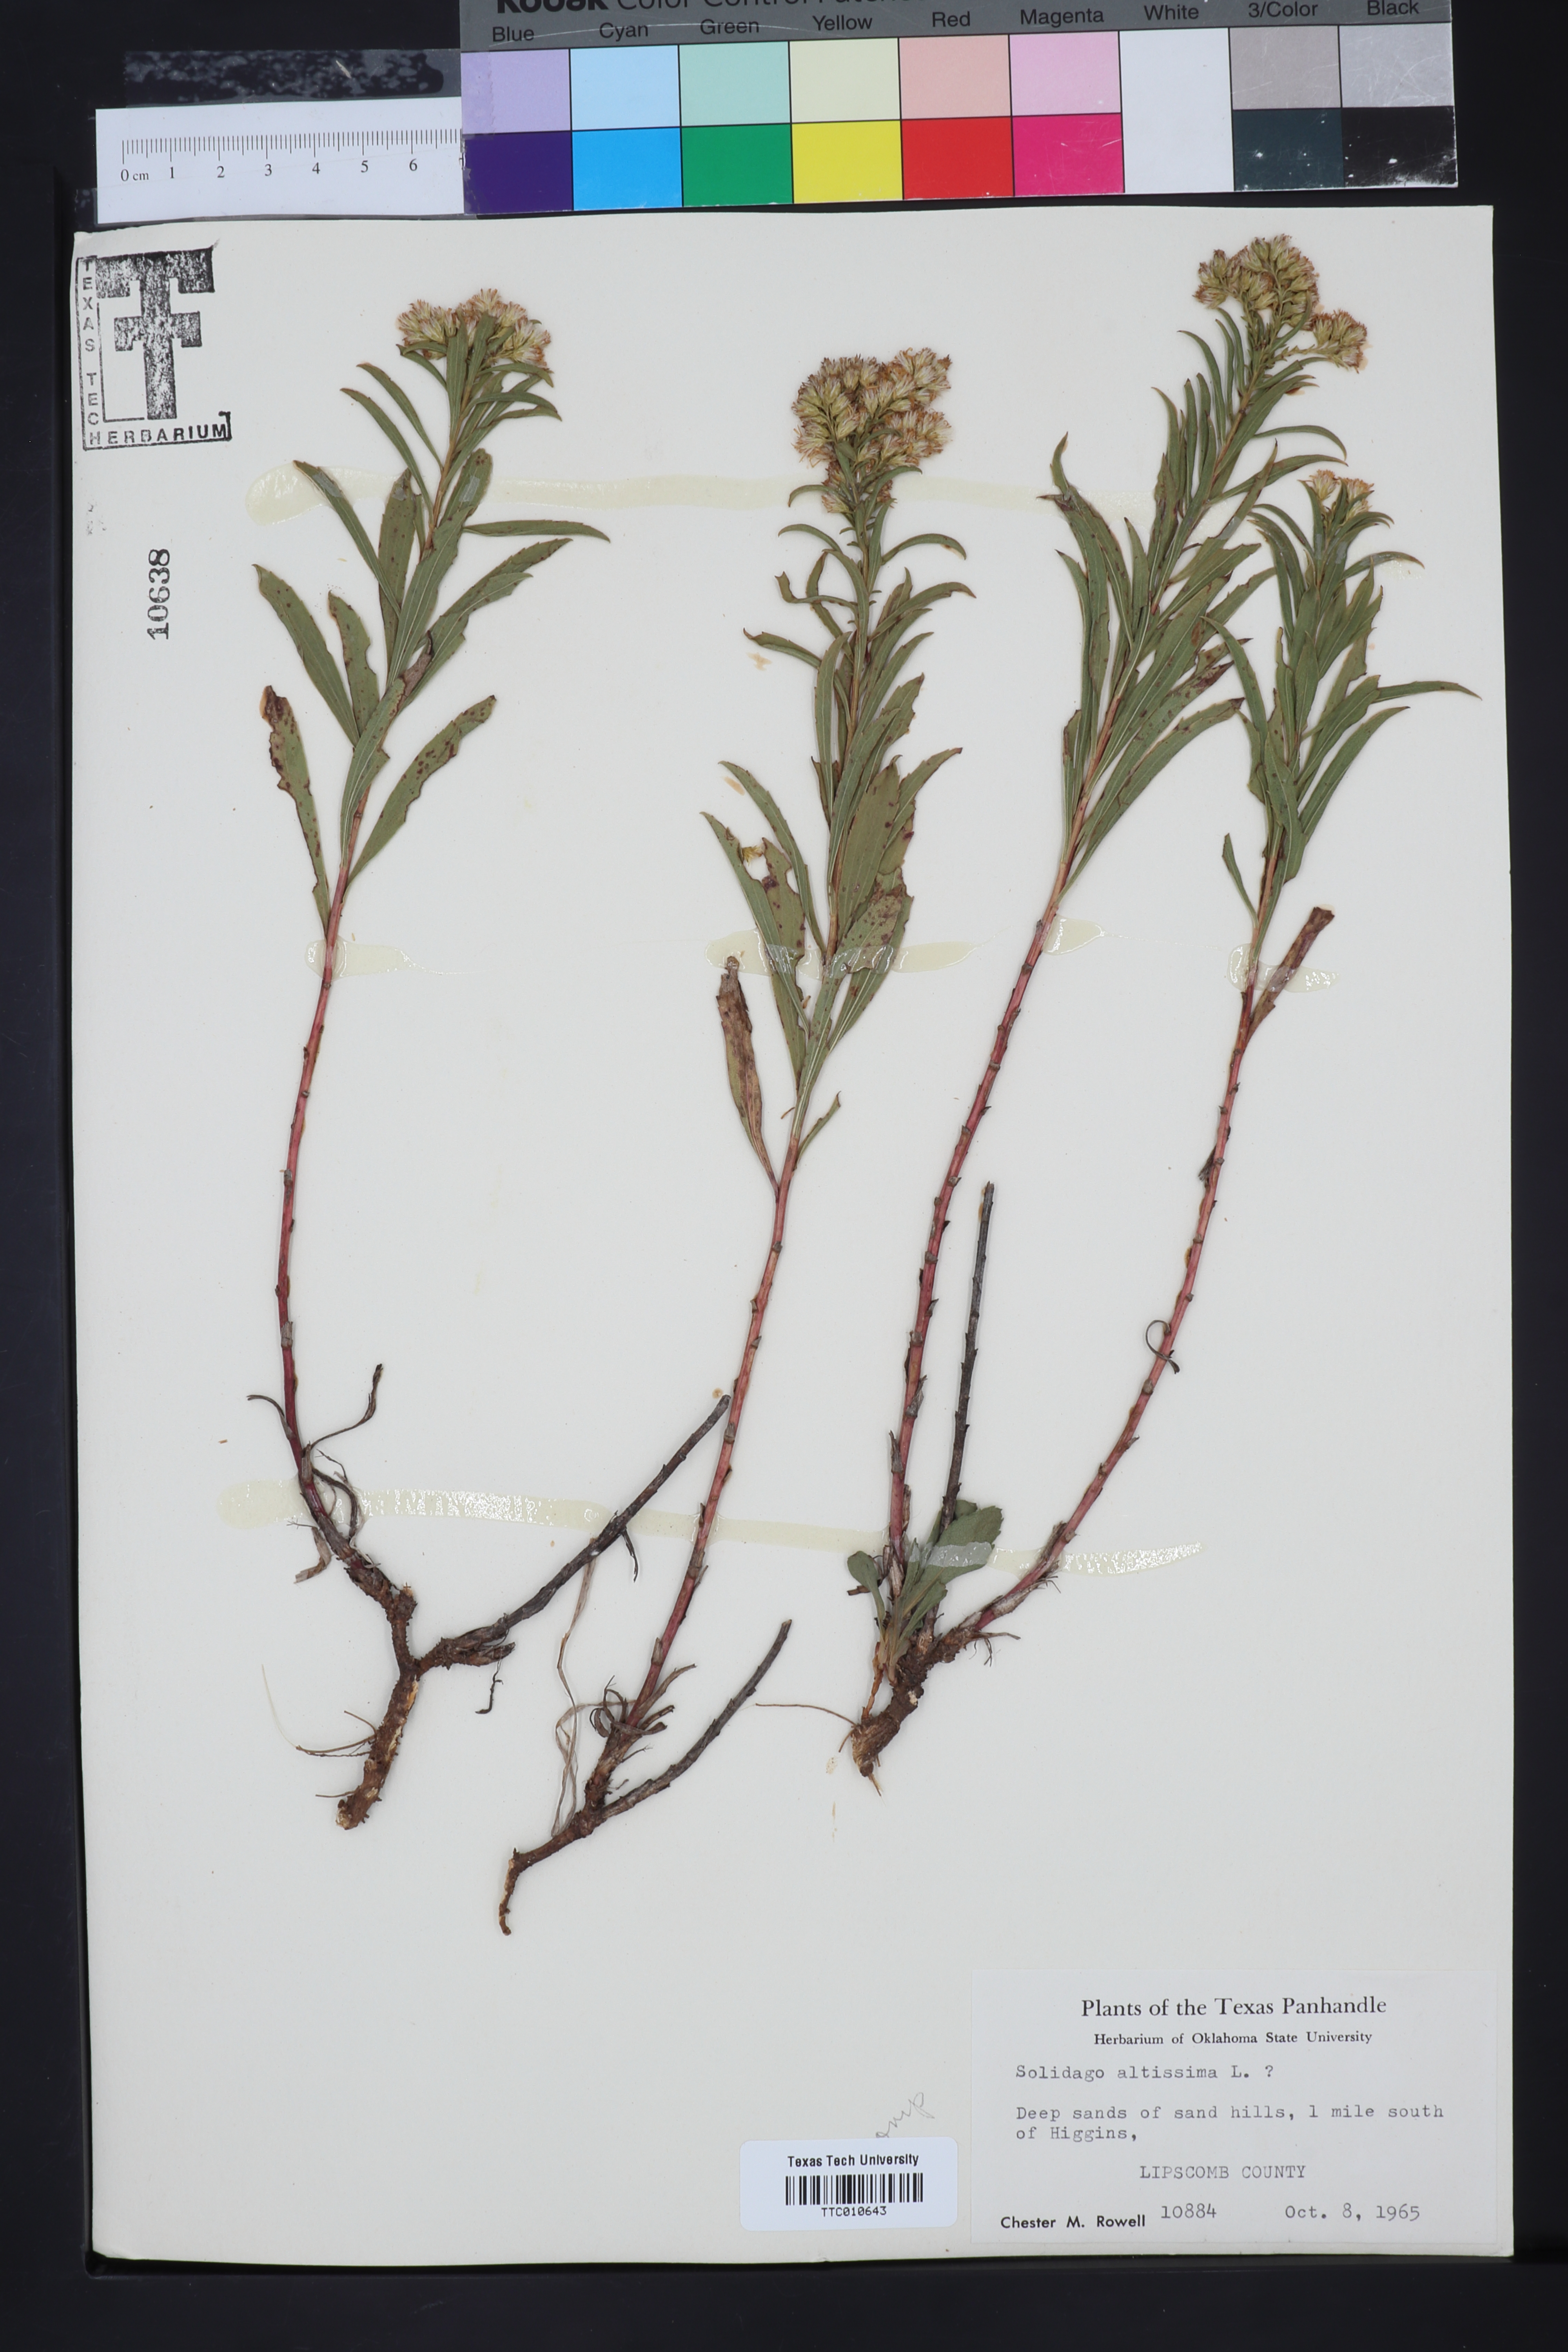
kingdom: Plantae
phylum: Tracheophyta
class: Magnoliopsida
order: Asterales
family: Asteraceae
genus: Solidago
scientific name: Solidago altissima
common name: Late goldenrod
